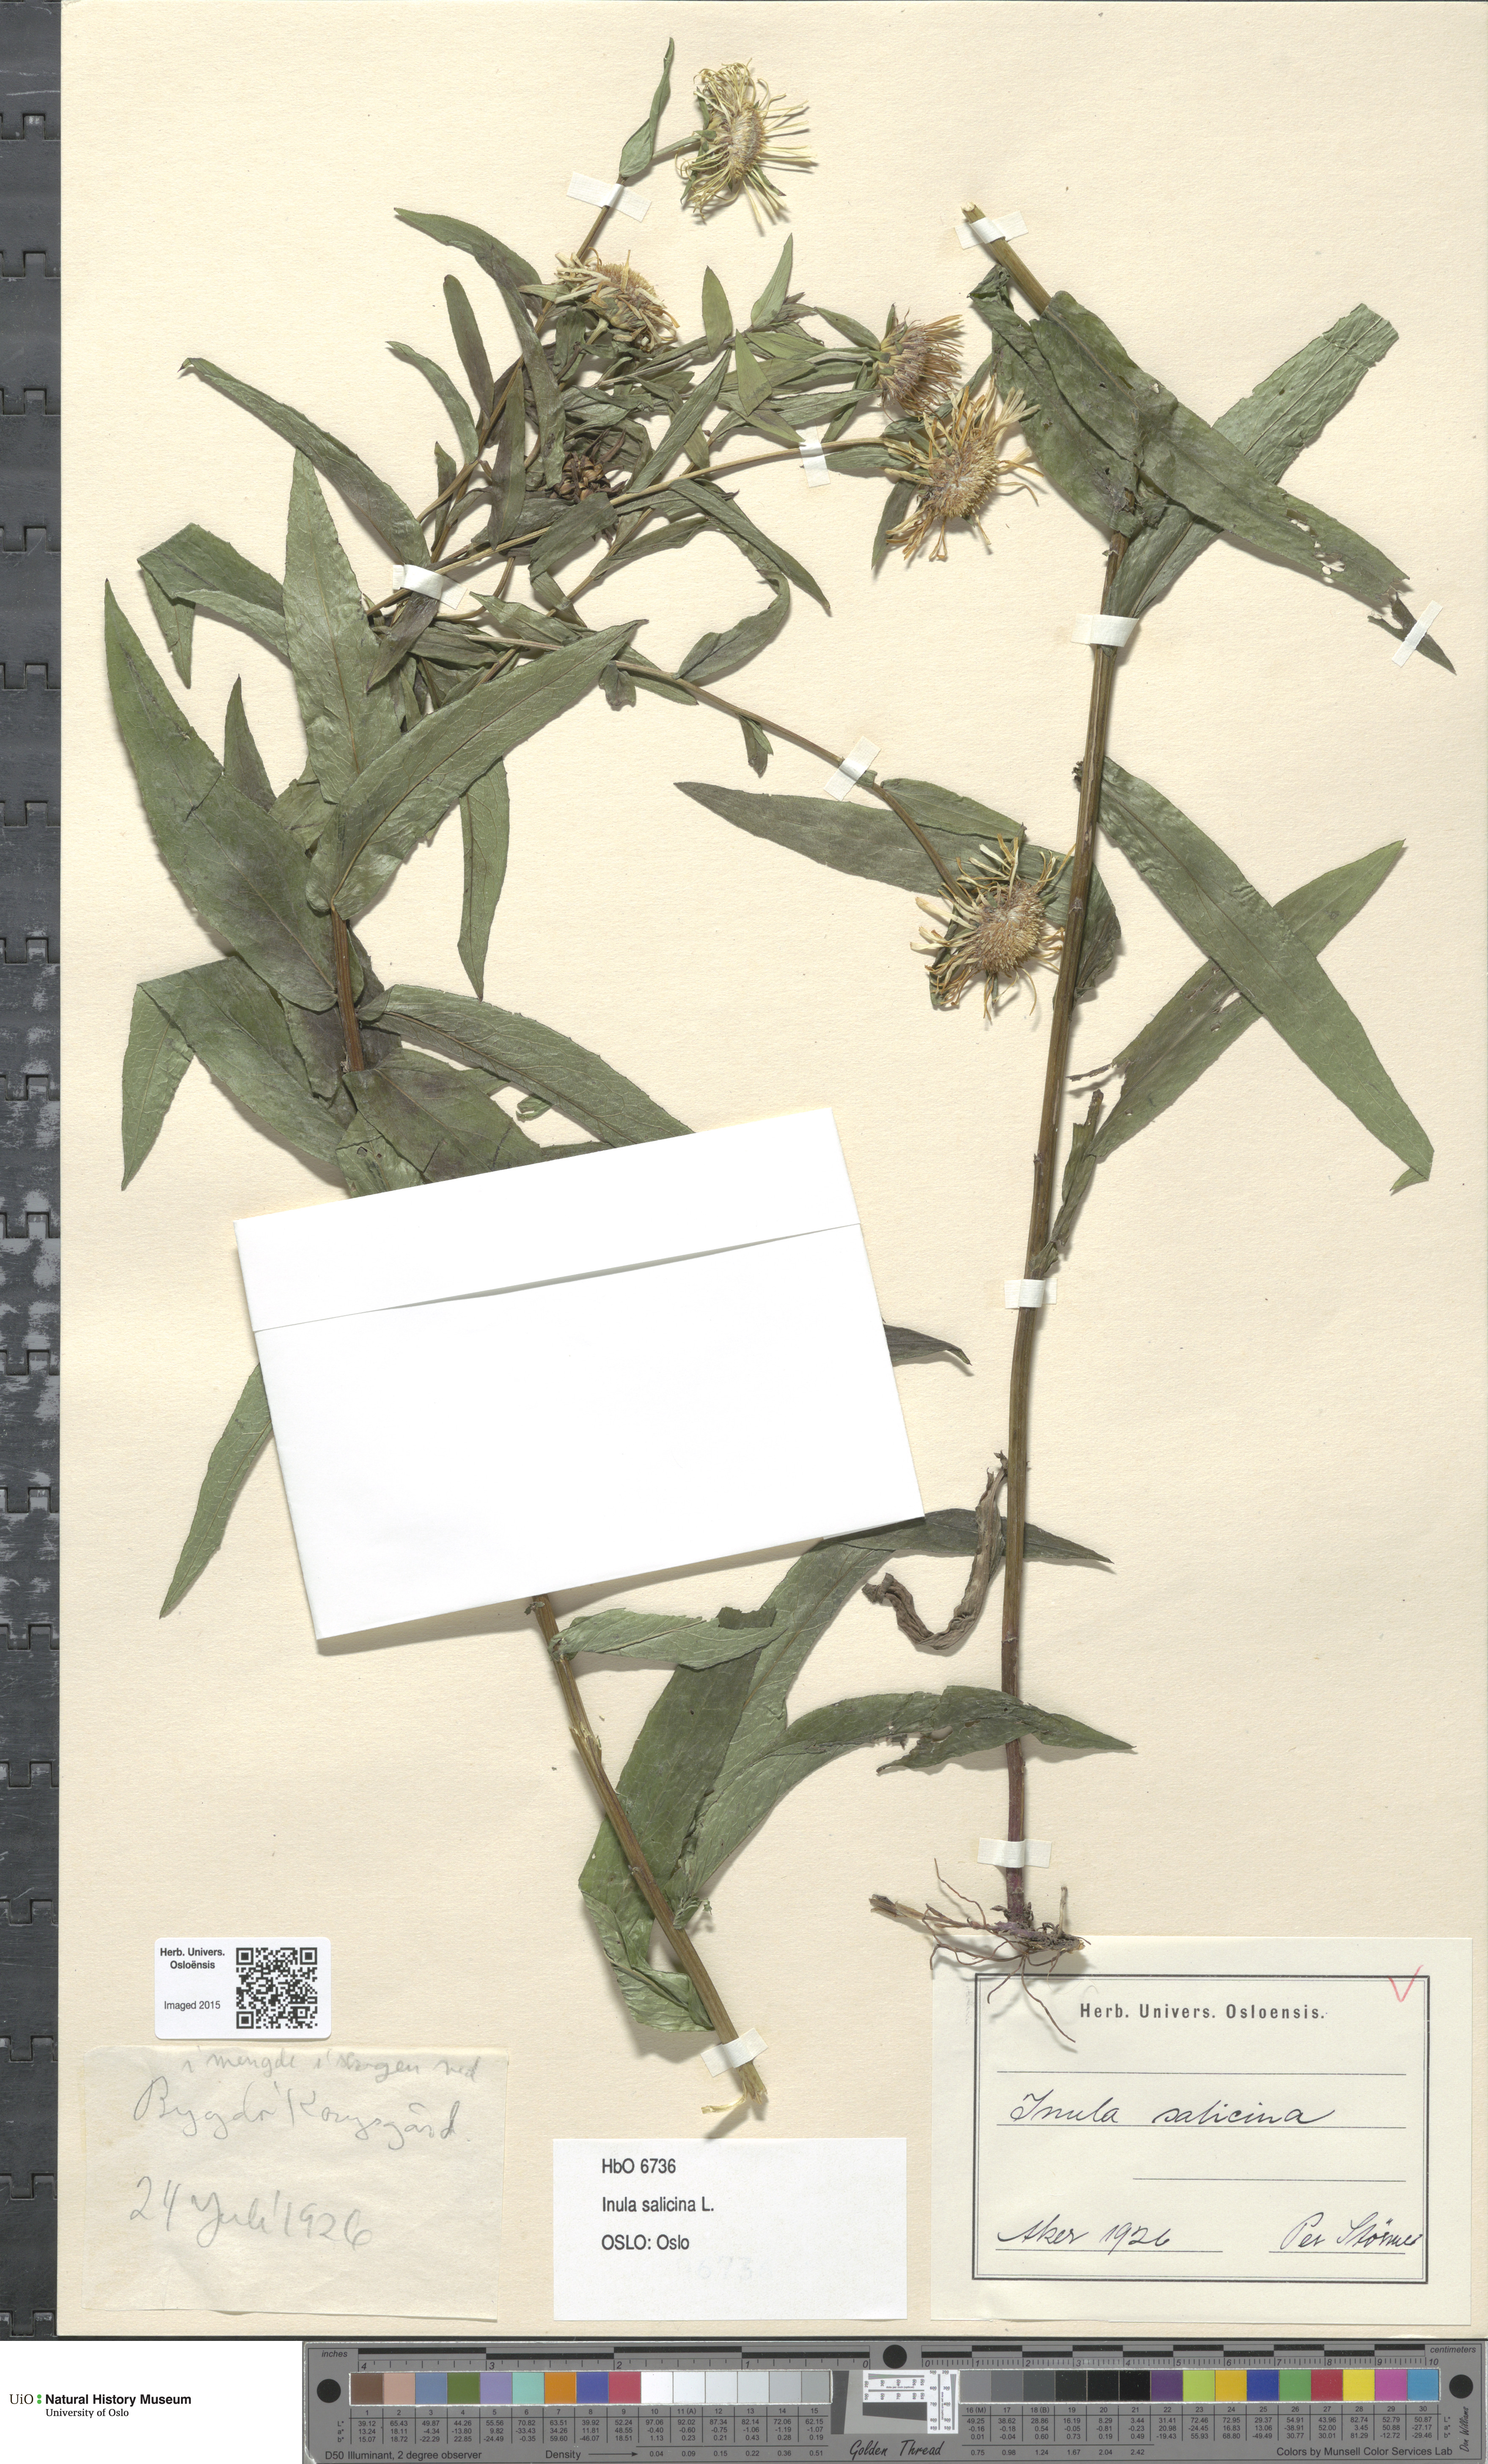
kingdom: Plantae
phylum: Tracheophyta
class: Magnoliopsida
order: Asterales
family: Asteraceae
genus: Pentanema
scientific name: Pentanema salicinum
